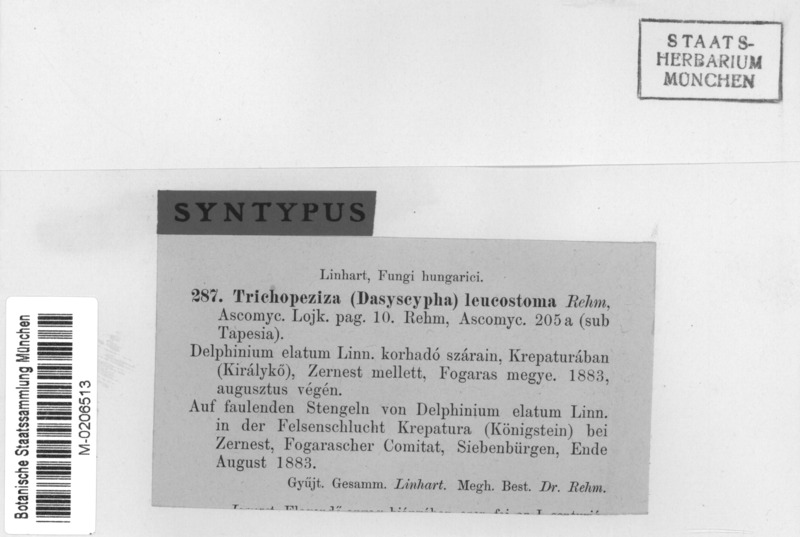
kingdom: Fungi
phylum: Ascomycota
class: Leotiomycetes
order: Helotiales
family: Solenopeziaceae
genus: Solenopezia
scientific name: Solenopezia leucostoma
